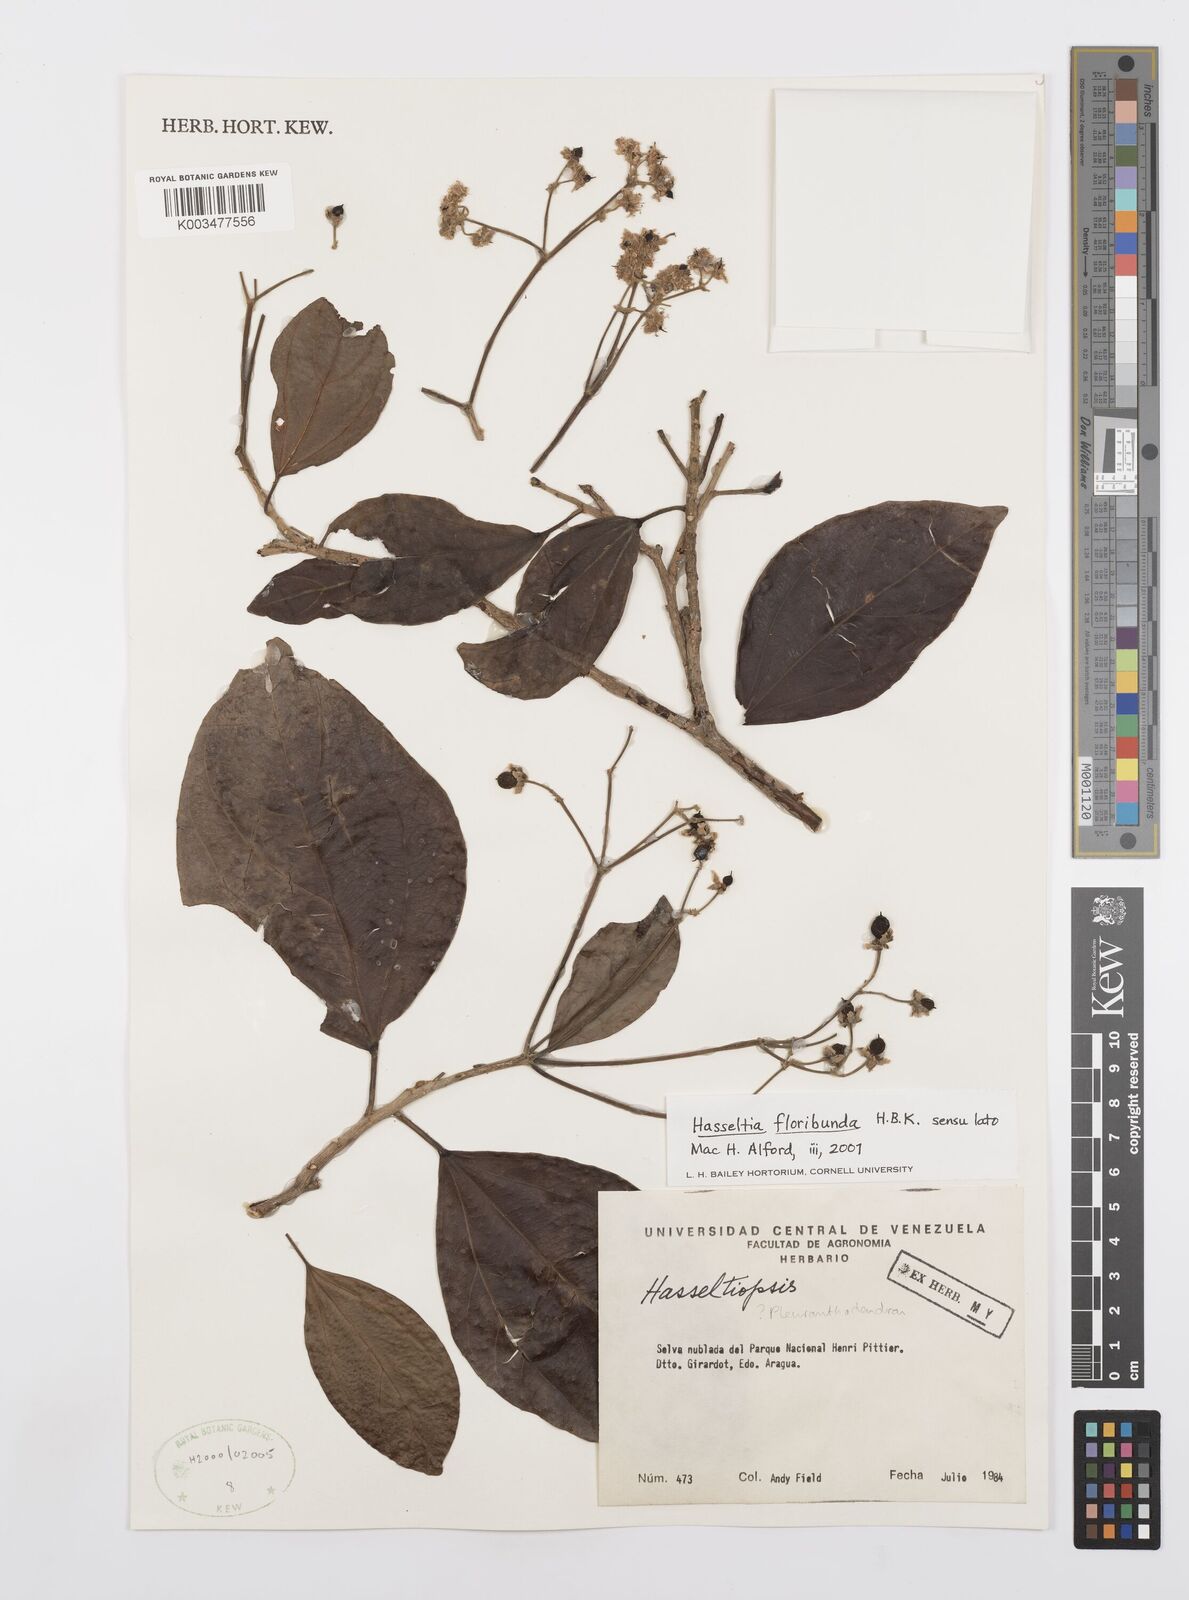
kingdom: Plantae
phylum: Tracheophyta
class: Magnoliopsida
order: Malpighiales
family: Salicaceae
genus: Hasseltia
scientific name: Hasseltia floribunda
